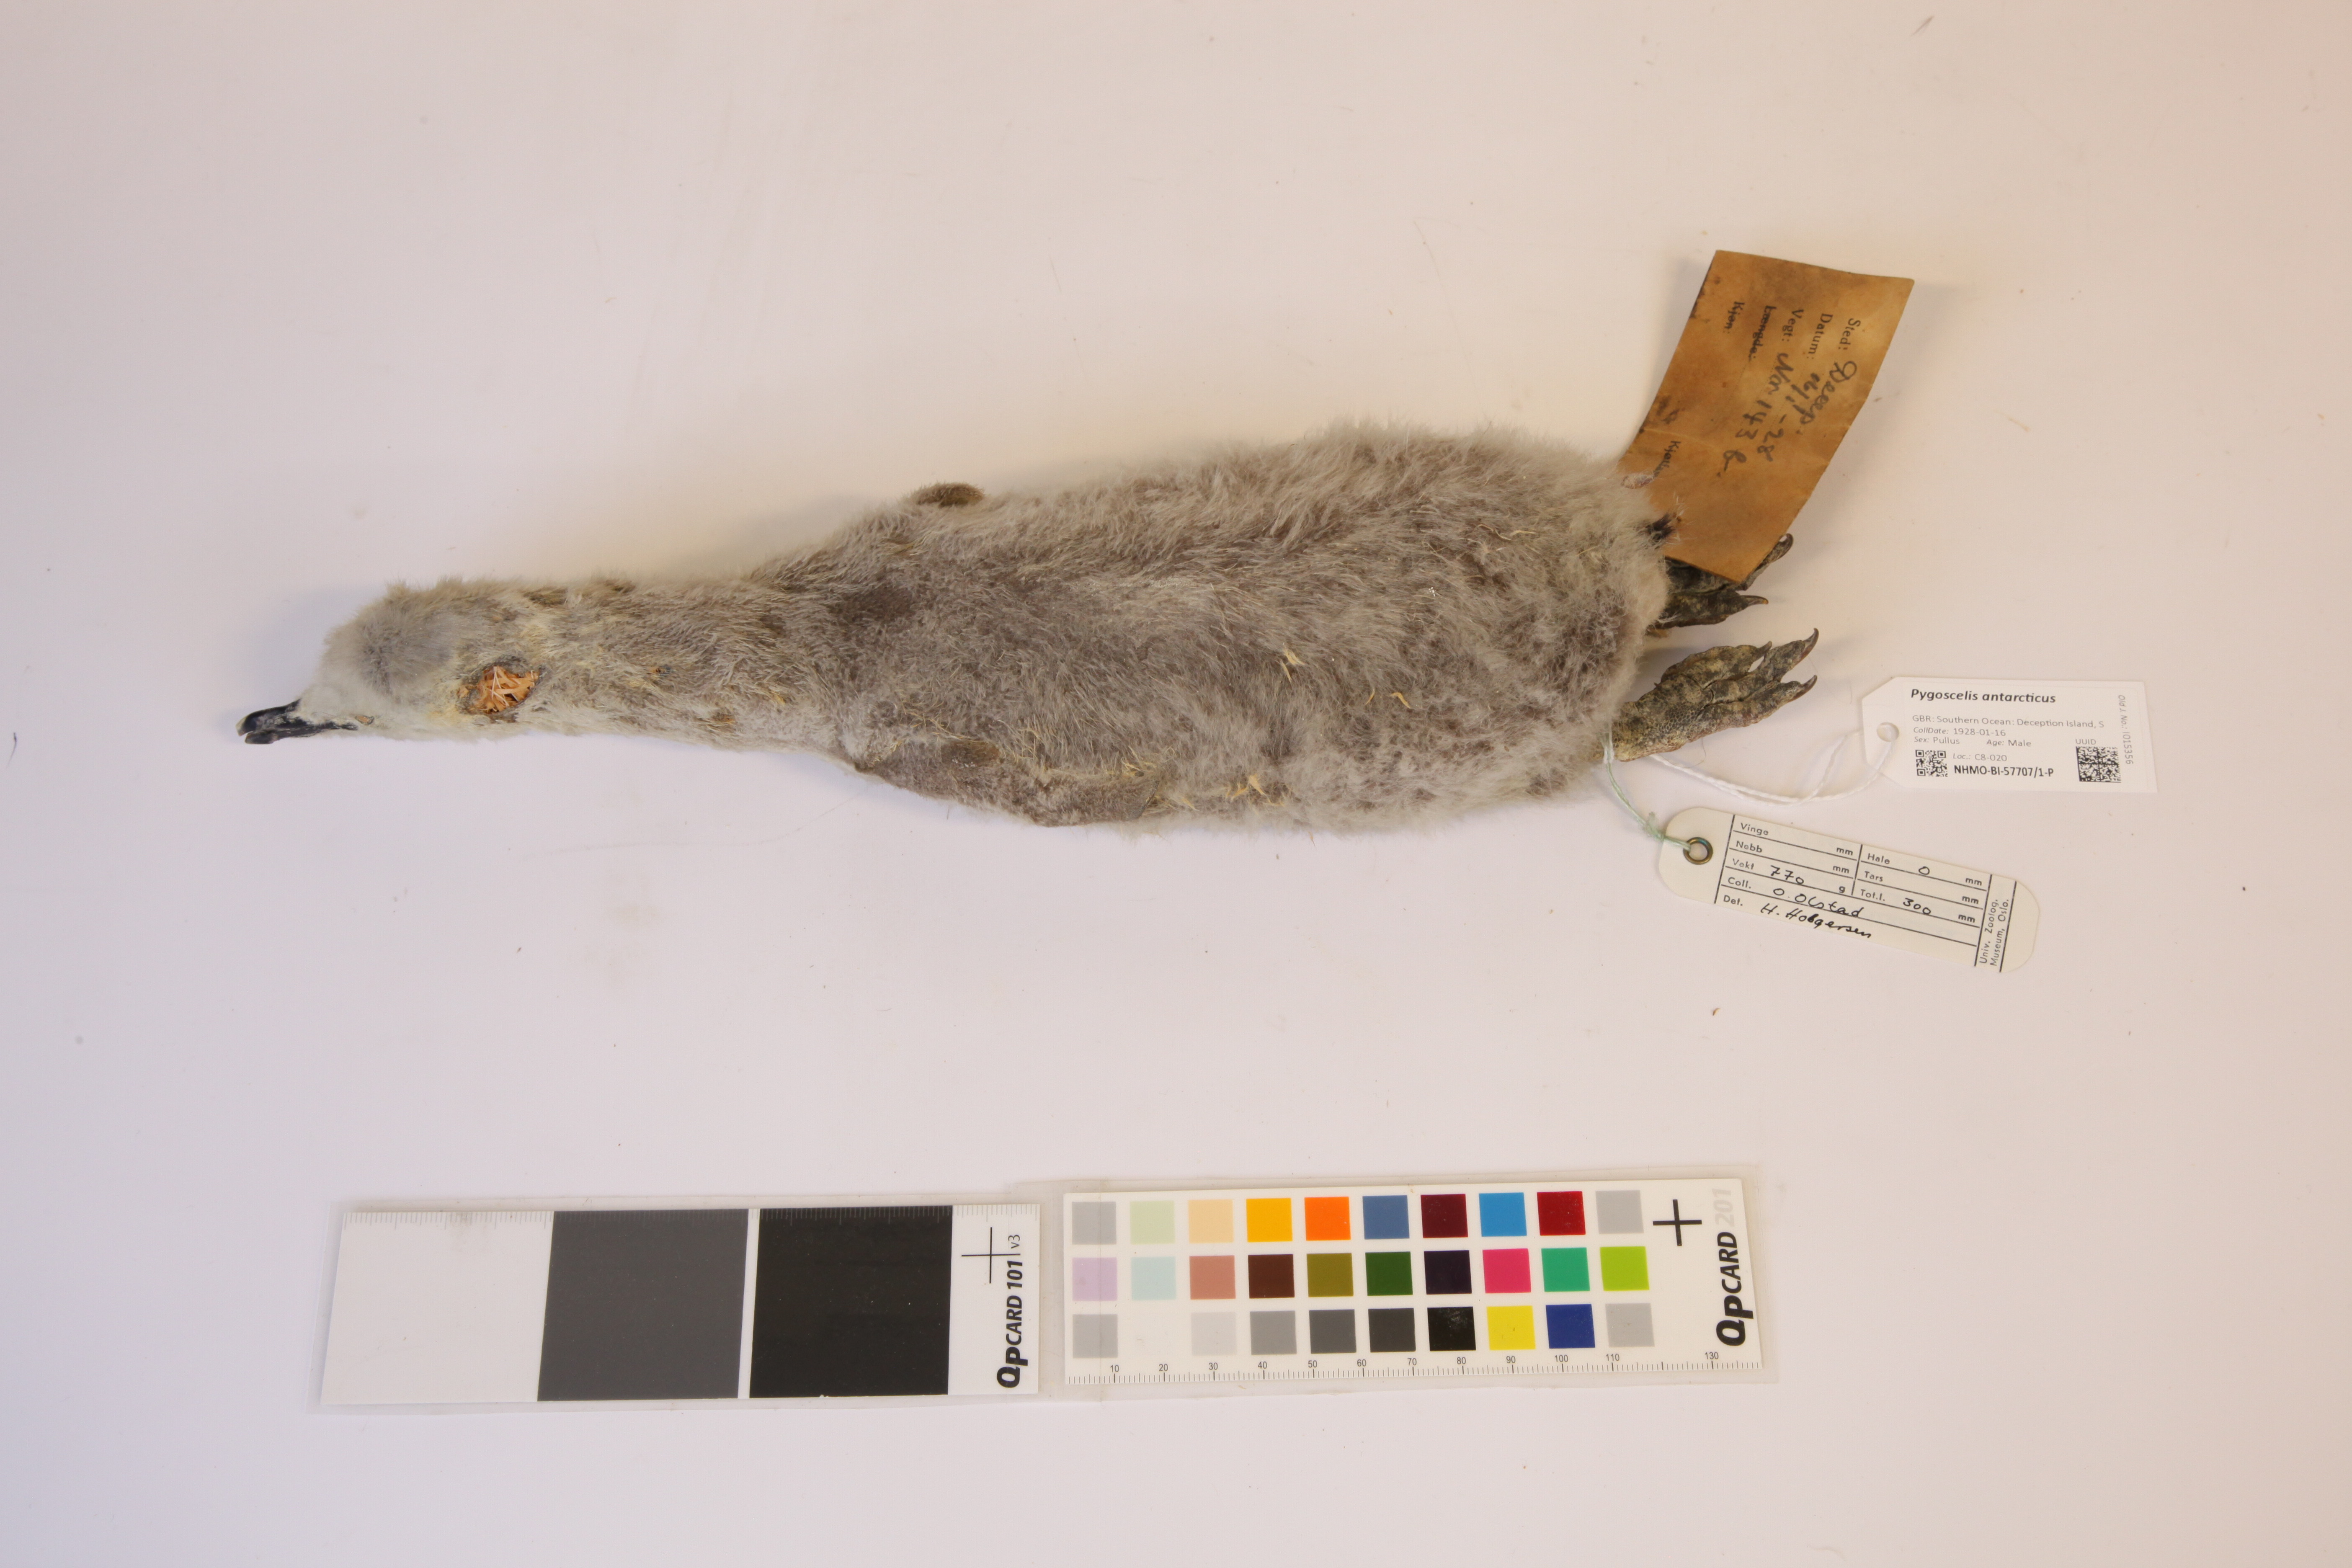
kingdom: Animalia
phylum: Chordata
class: Aves
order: Sphenisciformes
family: Spheniscidae
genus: Pygoscelis
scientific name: Pygoscelis antarcticus
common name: Chinstrap penguin
